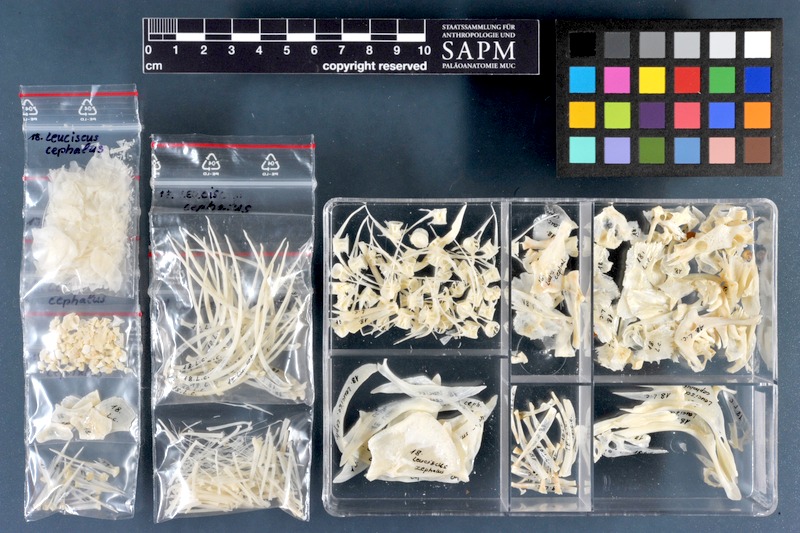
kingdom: Animalia
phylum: Chordata
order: Cypriniformes
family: Cyprinidae
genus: Squalius
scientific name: Squalius cephalus
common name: Chub
